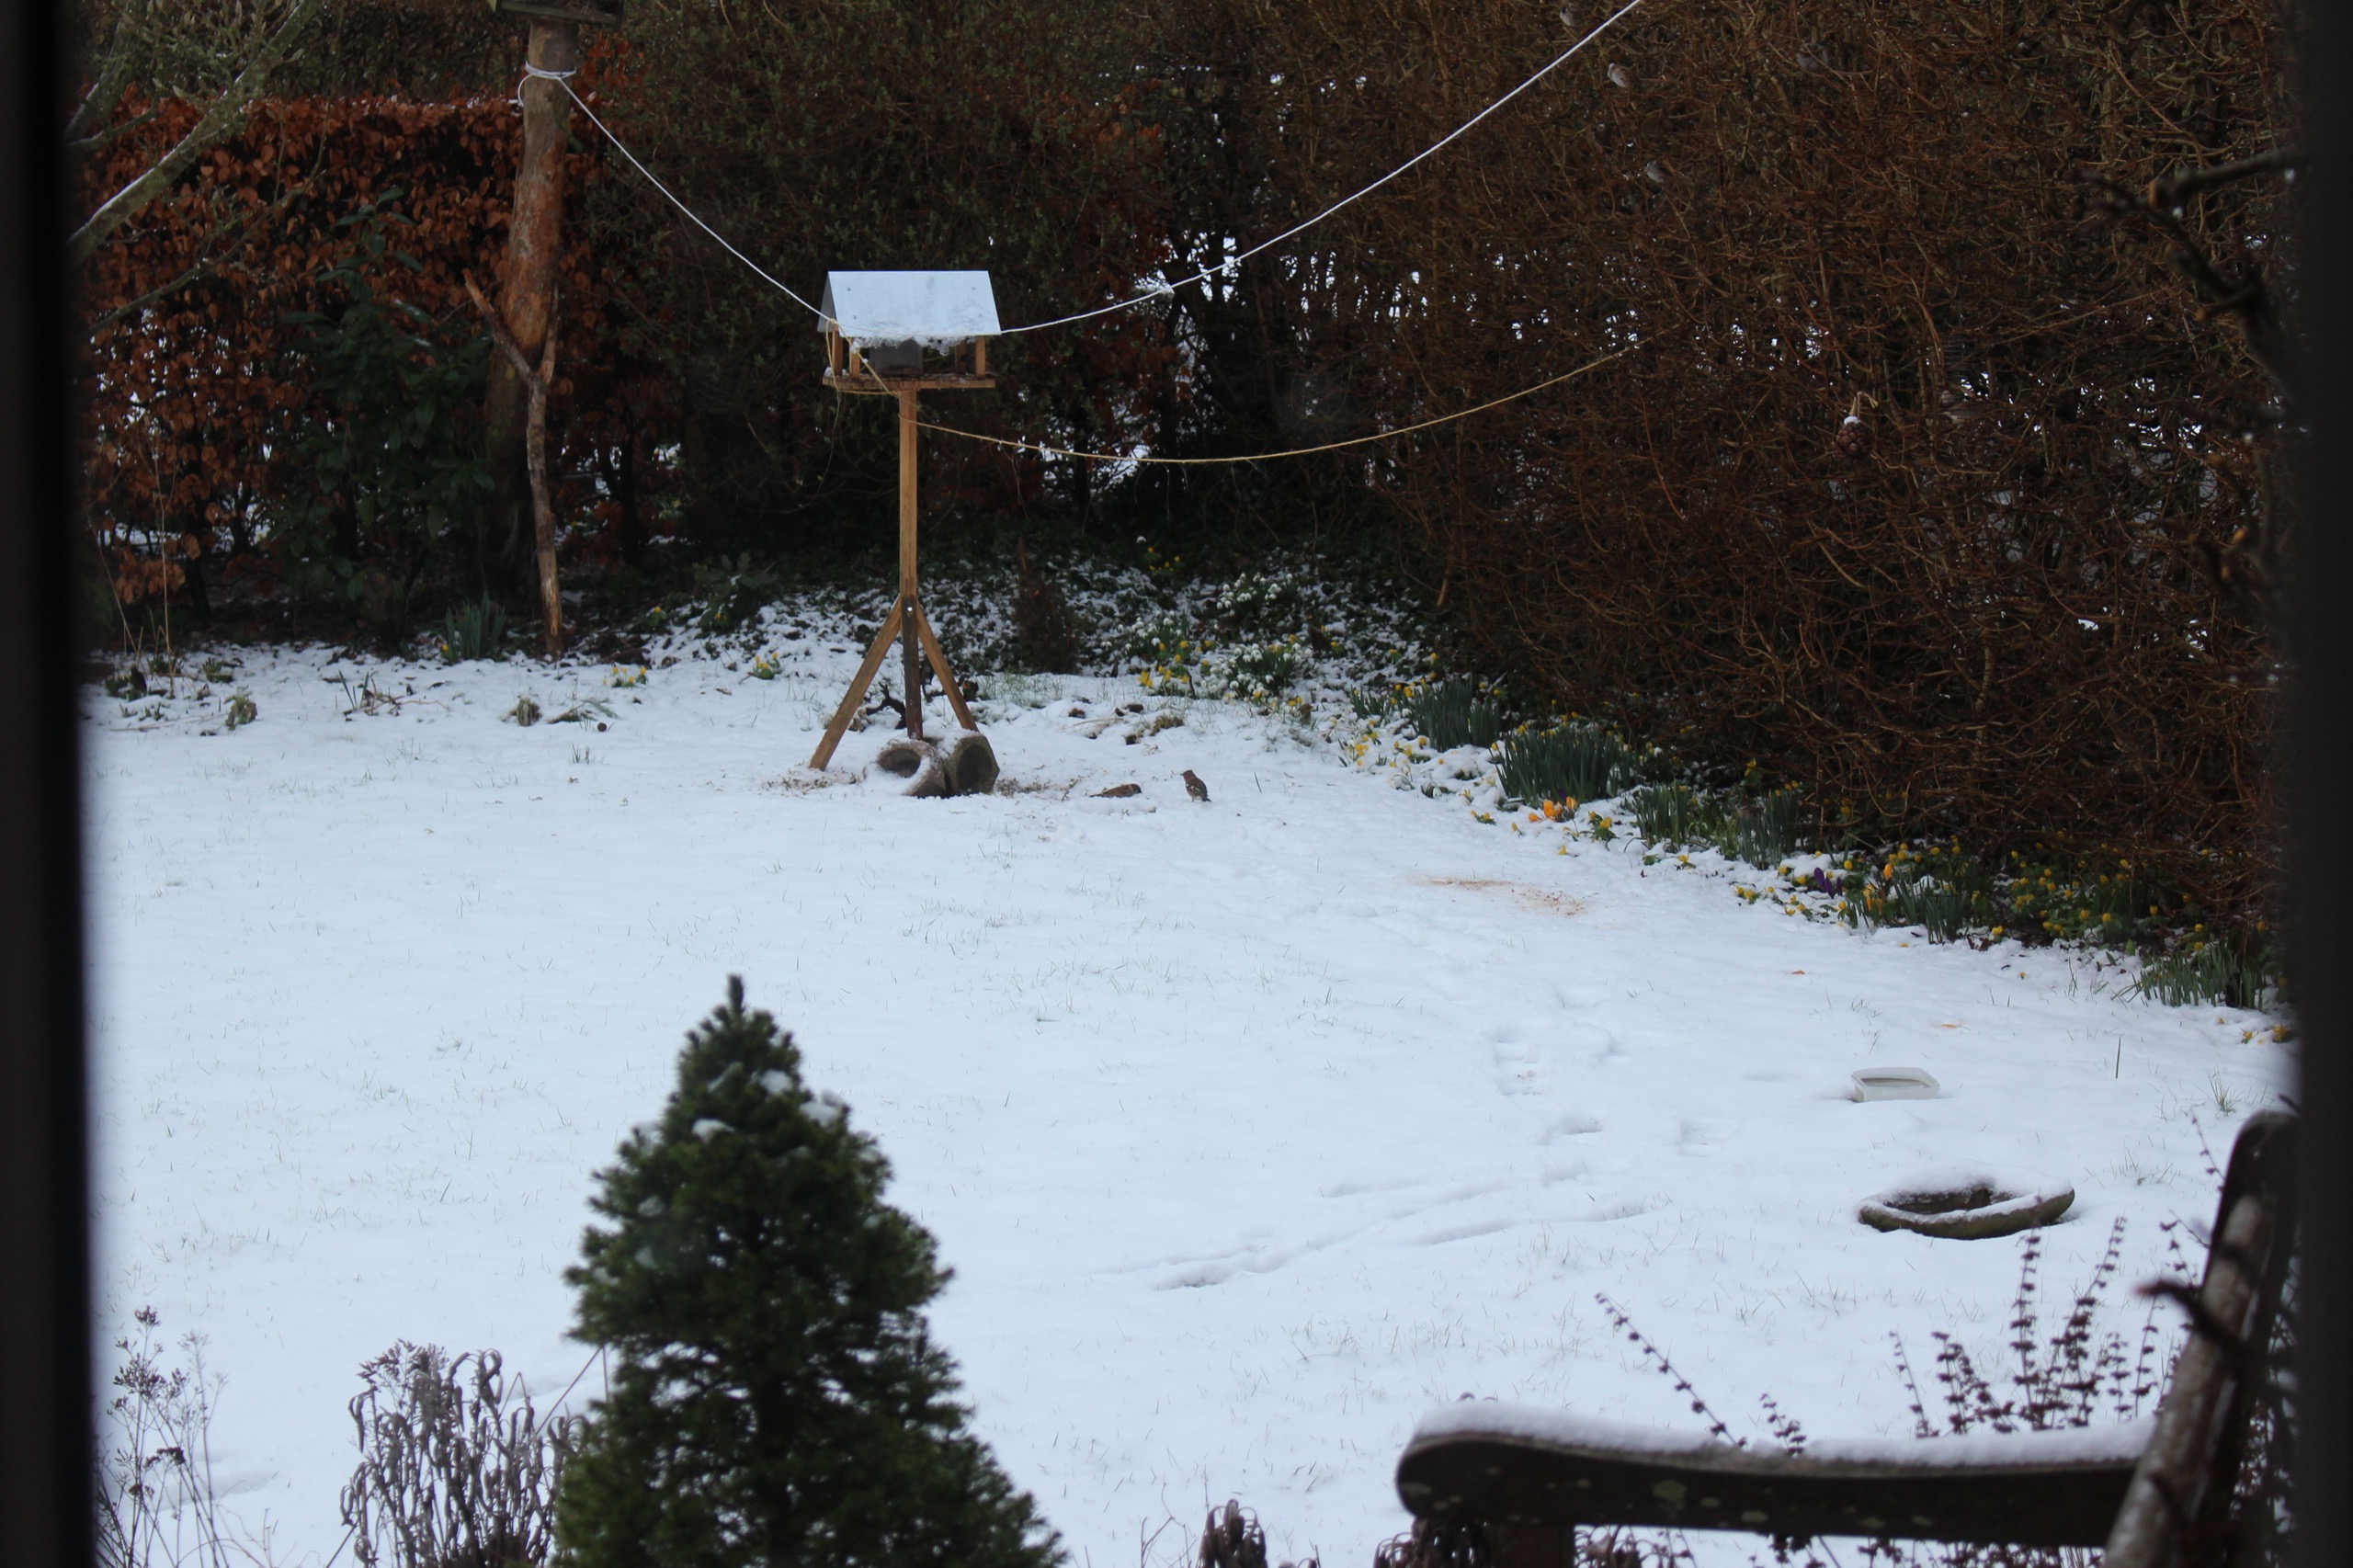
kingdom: Animalia
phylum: Chordata
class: Aves
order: Passeriformes
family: Fringillidae
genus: Fringilla
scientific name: Fringilla coelebs
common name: Bogfinke
